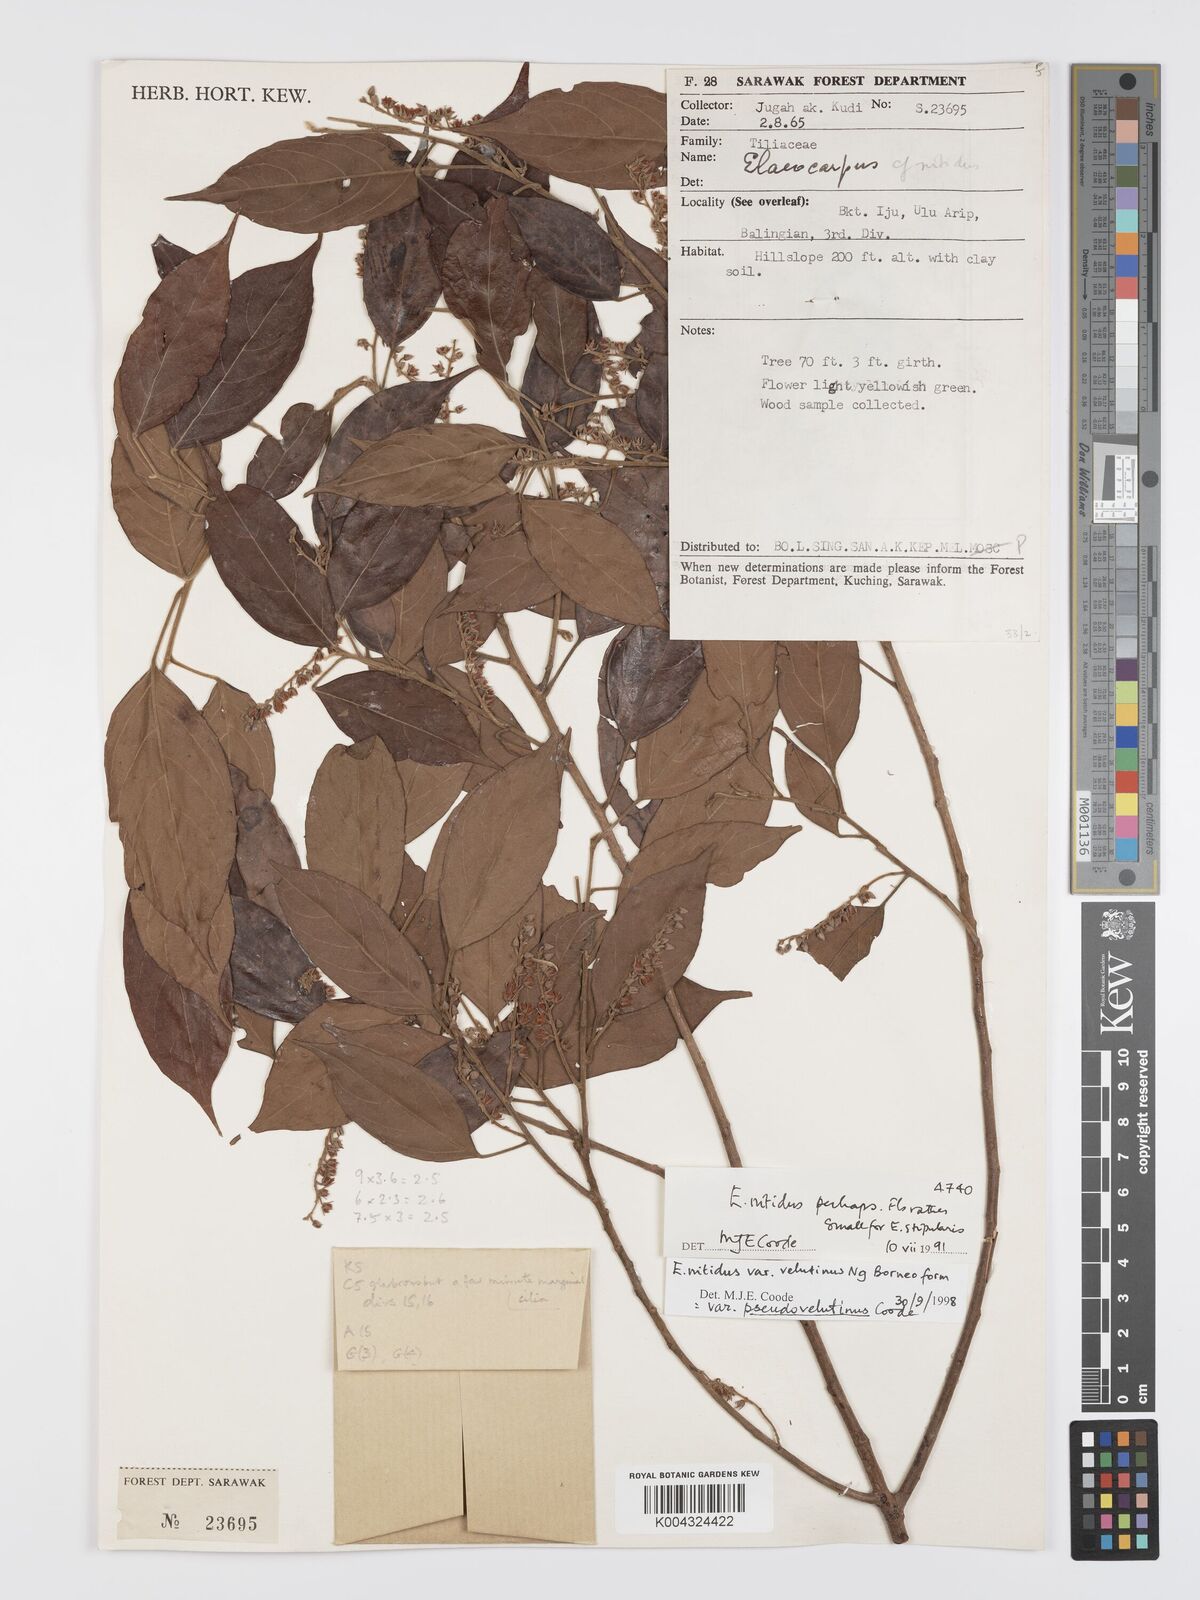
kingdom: Plantae
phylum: Tracheophyta
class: Magnoliopsida
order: Oxalidales
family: Elaeocarpaceae
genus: Elaeocarpus
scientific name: Elaeocarpus nitidus
